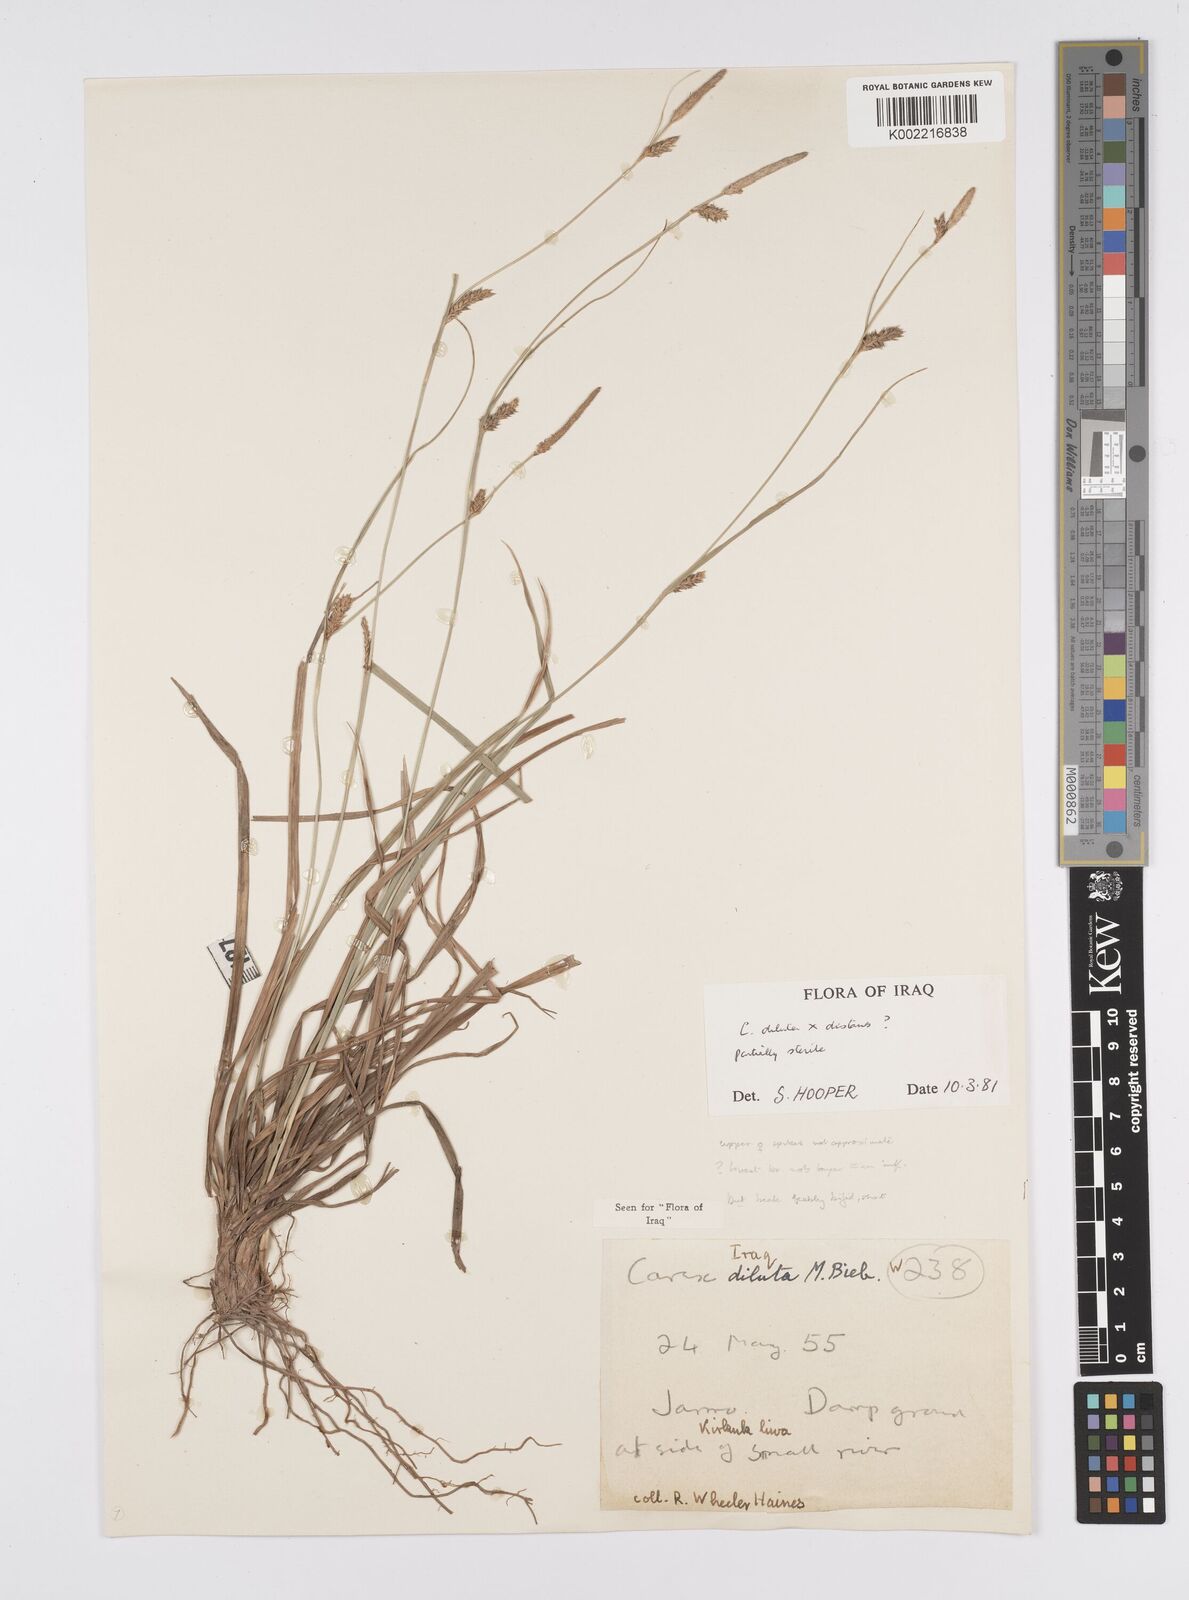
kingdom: Plantae
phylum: Tracheophyta
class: Liliopsida
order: Poales
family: Cyperaceae
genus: Carex
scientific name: Carex diluta
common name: Sedge
